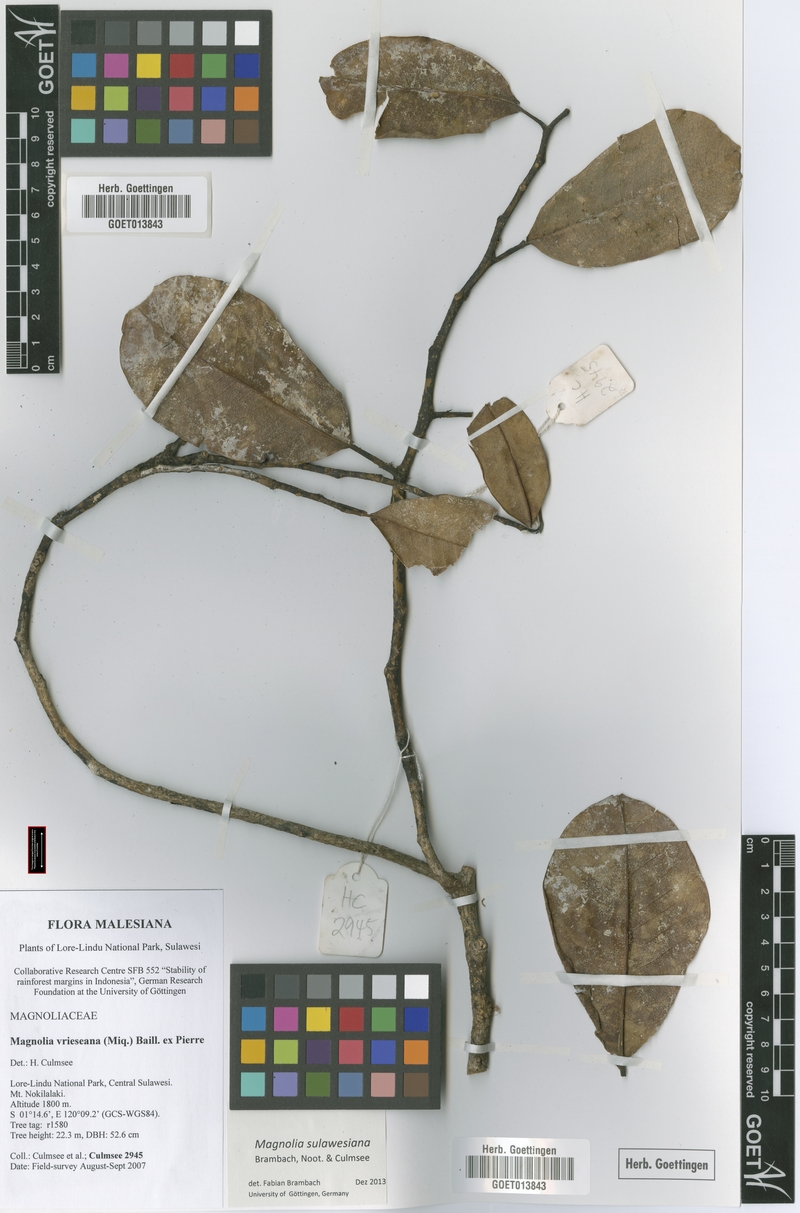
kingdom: Plantae
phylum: Tracheophyta
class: Magnoliopsida
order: Magnoliales
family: Magnoliaceae
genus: Magnolia
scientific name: Magnolia sulawesiana
